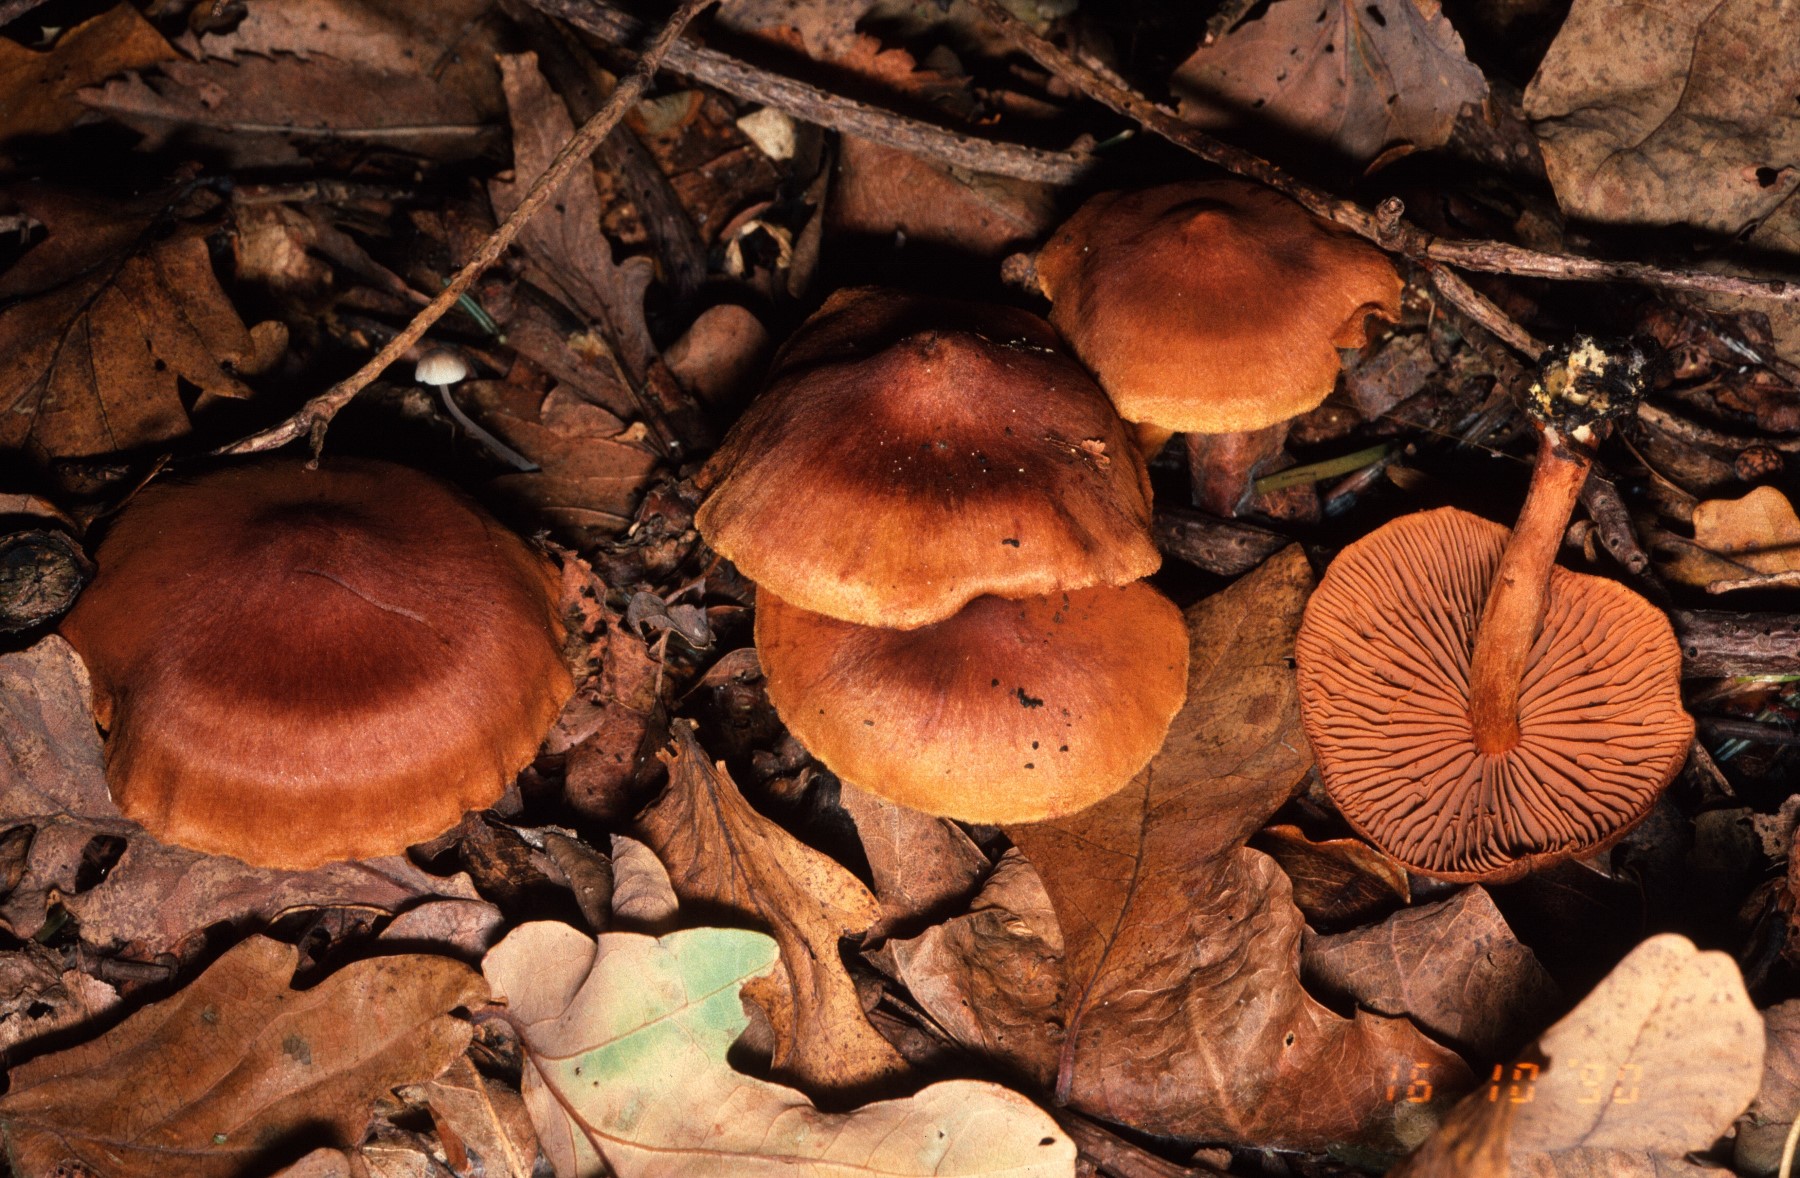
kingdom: Fungi
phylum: Basidiomycota
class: Agaricomycetes
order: Agaricales
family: Cortinariaceae
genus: Cortinarius
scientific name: Cortinarius
